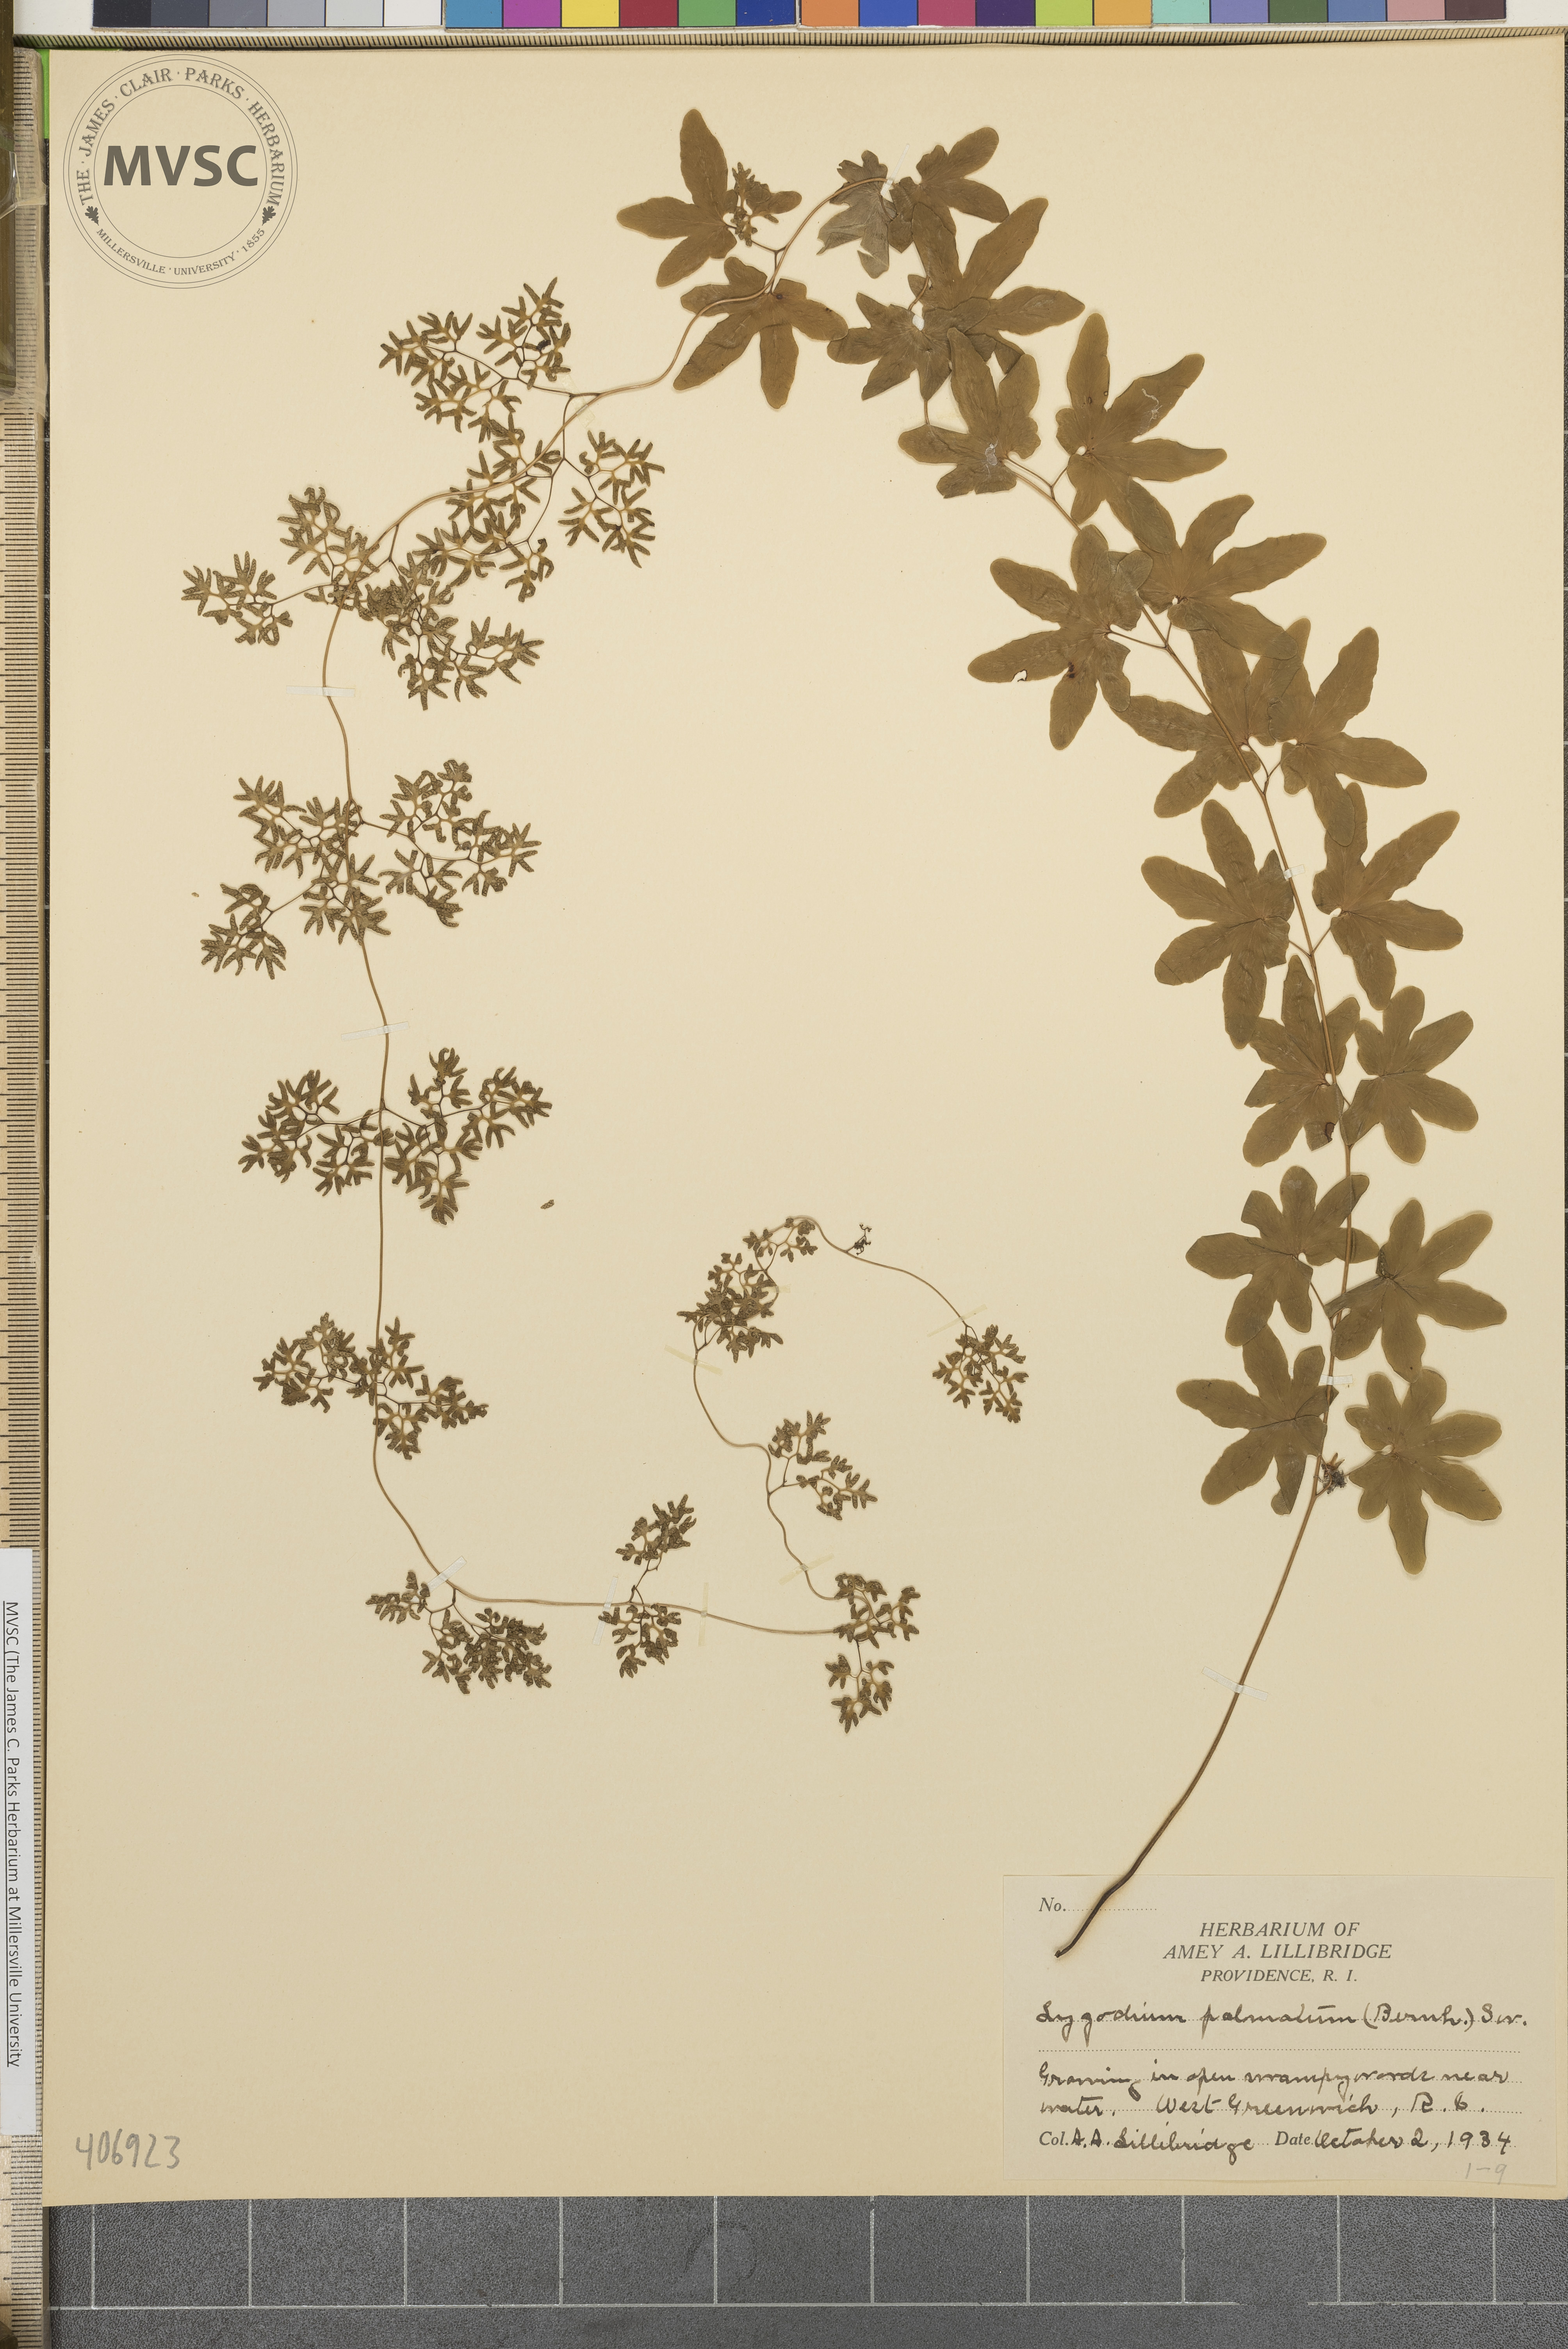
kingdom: Plantae
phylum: Tracheophyta
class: Polypodiopsida
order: Schizaeales
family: Lygodiaceae
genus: Lygodium
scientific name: Lygodium palmatum
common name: American climbing fern
